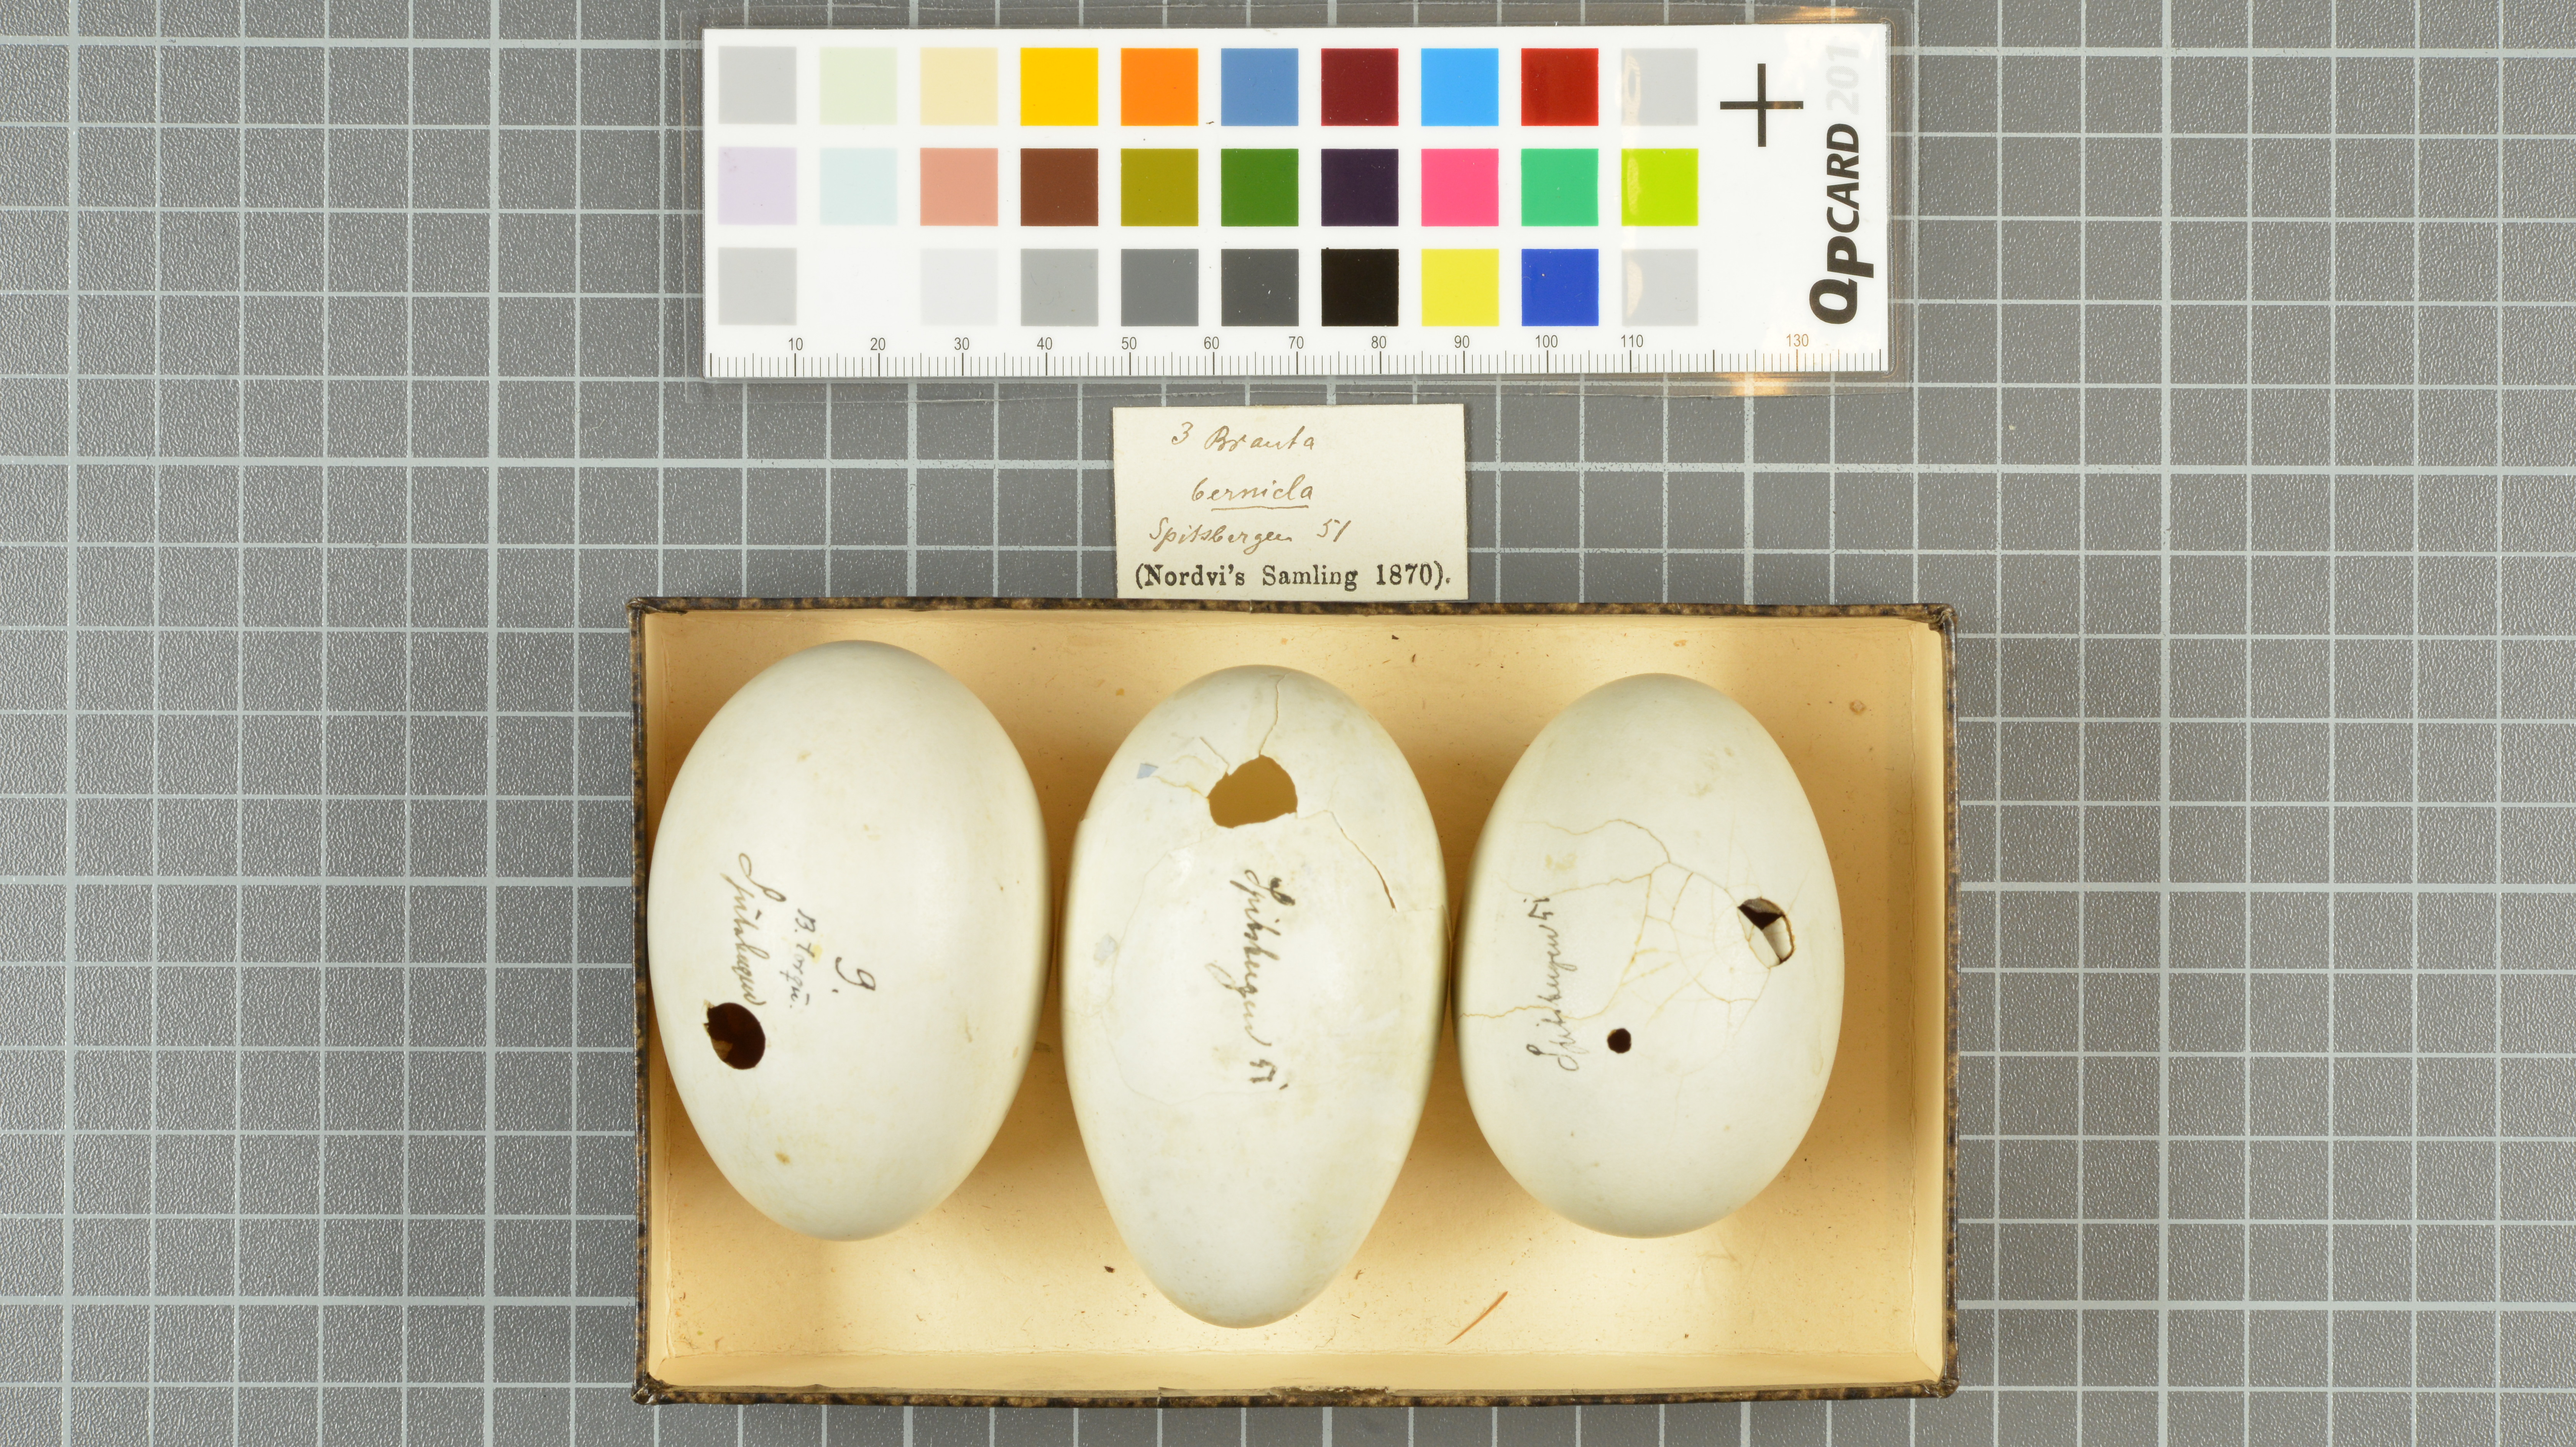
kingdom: Animalia
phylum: Chordata
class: Aves
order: Anseriformes
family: Anatidae
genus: Branta
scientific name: Branta bernicla
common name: Brant goose
